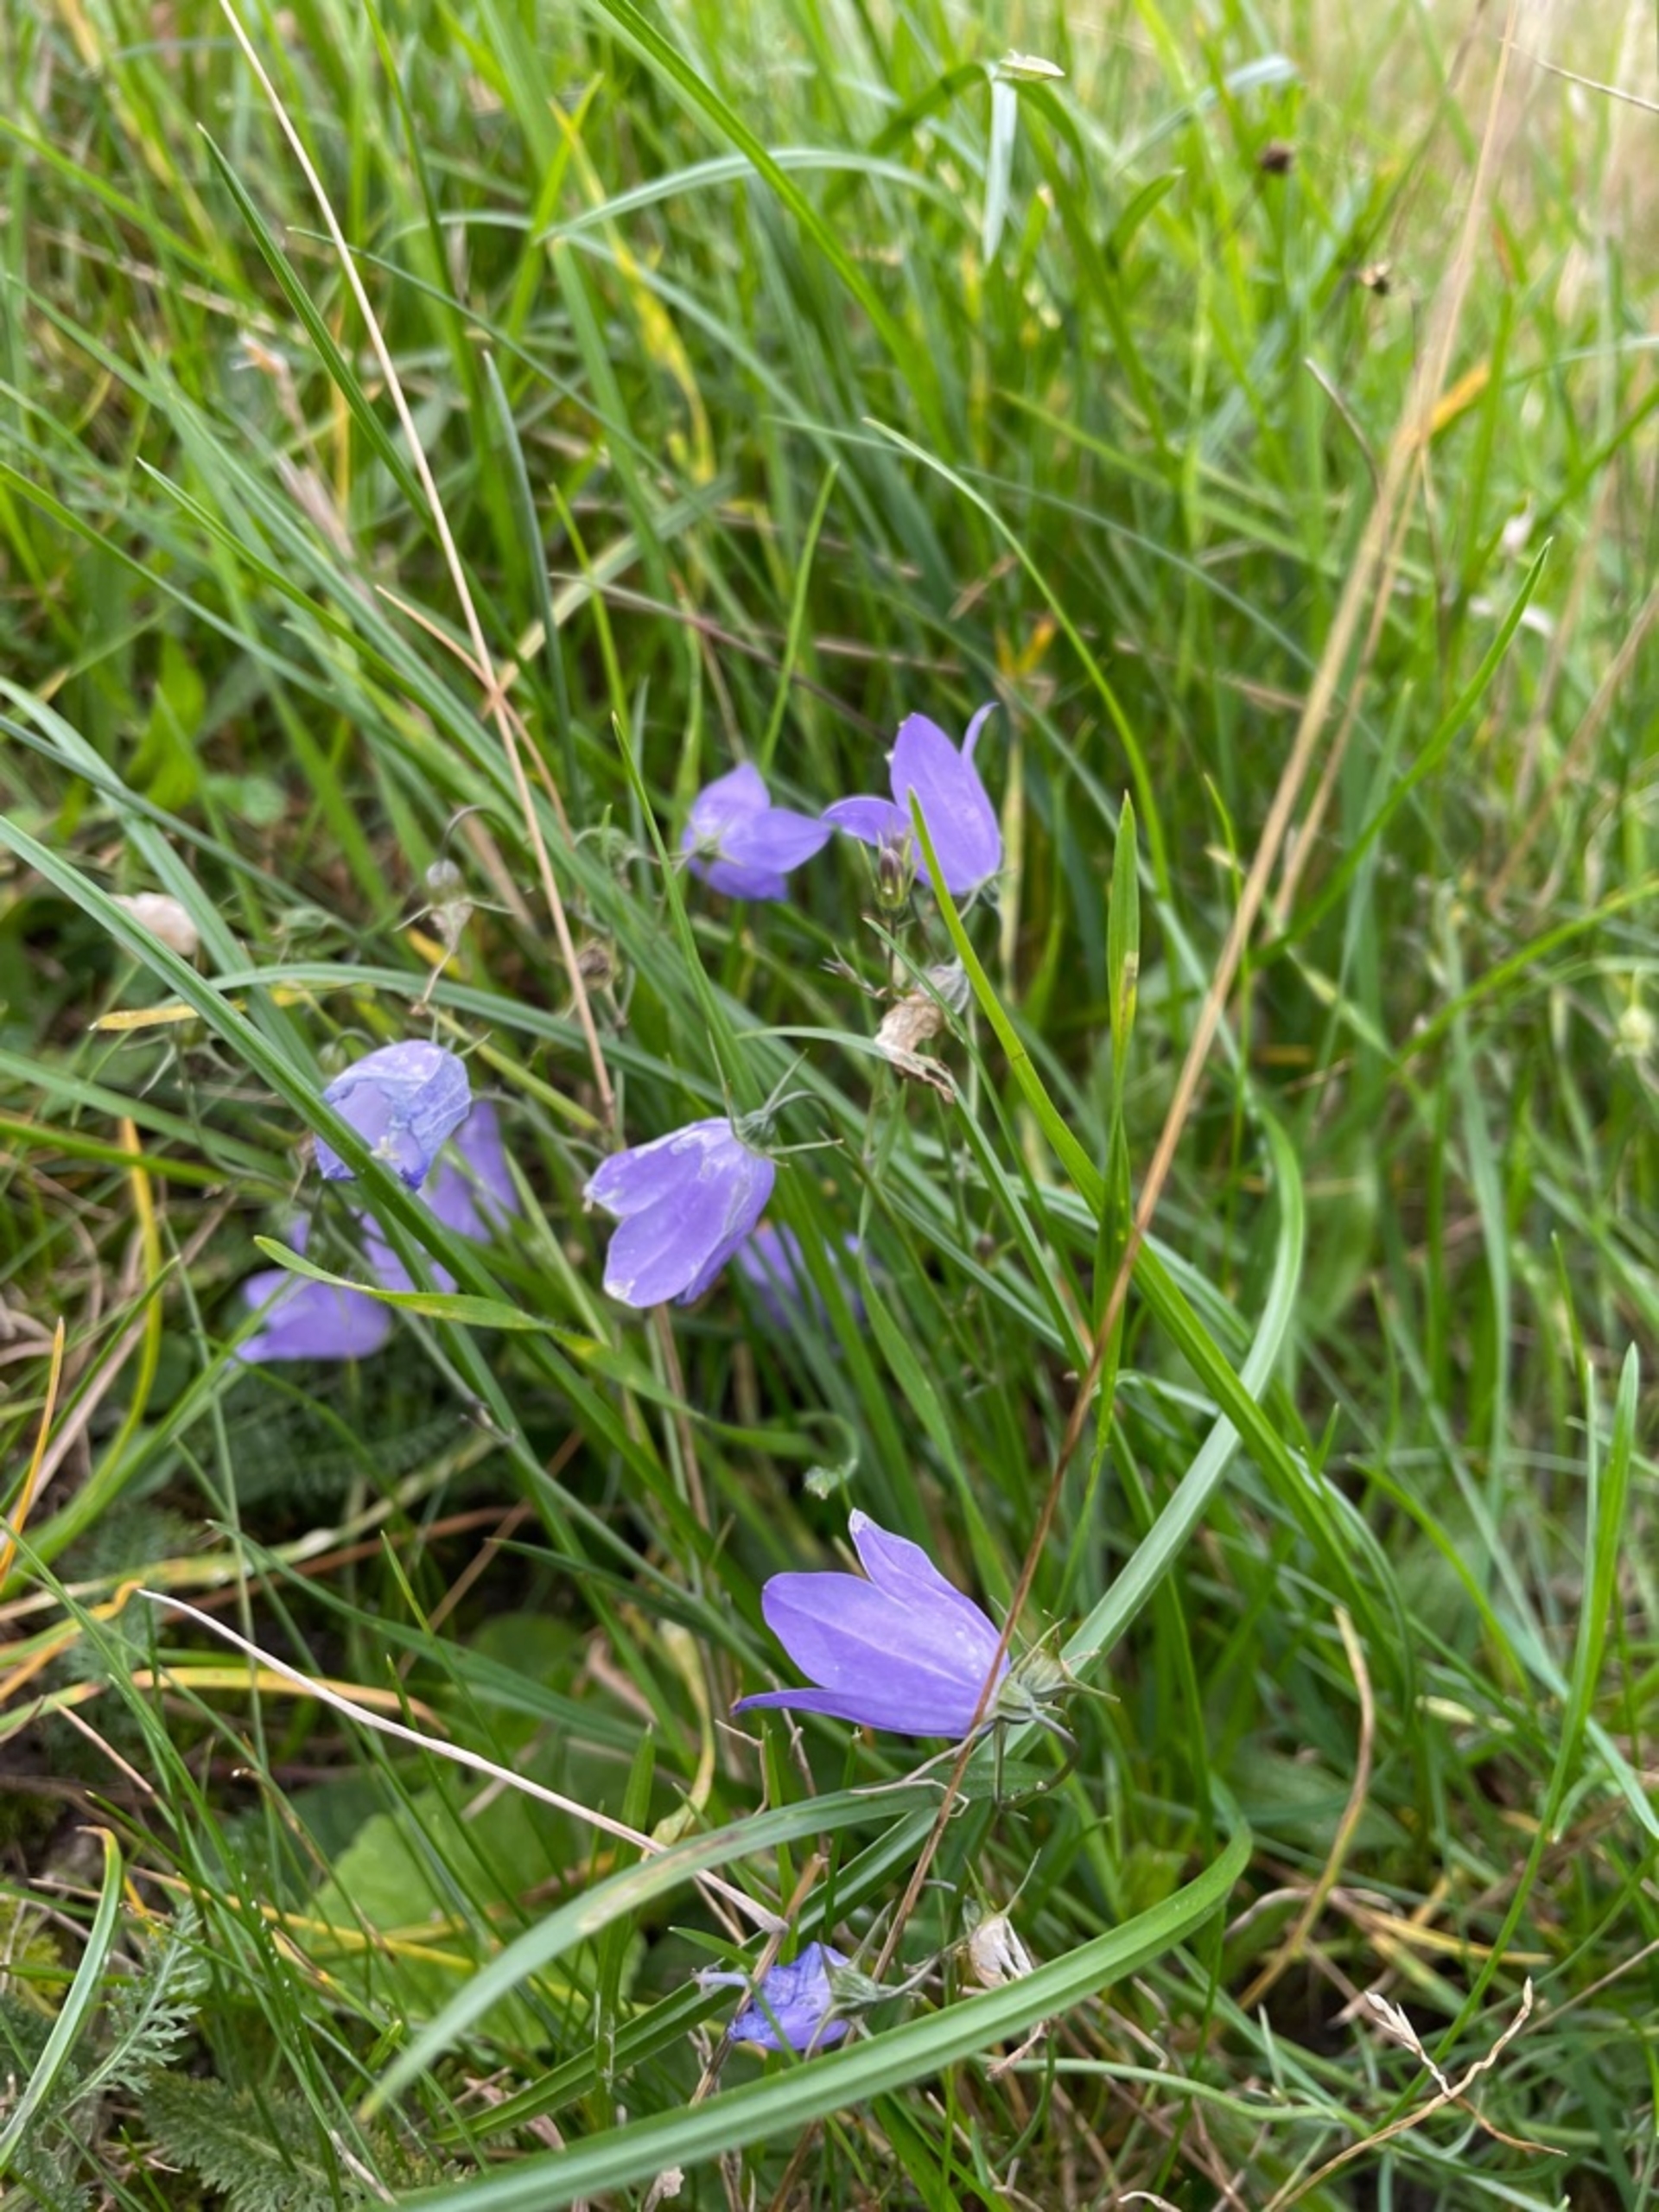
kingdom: Plantae
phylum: Tracheophyta
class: Magnoliopsida
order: Asterales
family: Campanulaceae
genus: Campanula
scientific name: Campanula rotundifolia
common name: Liden klokke
